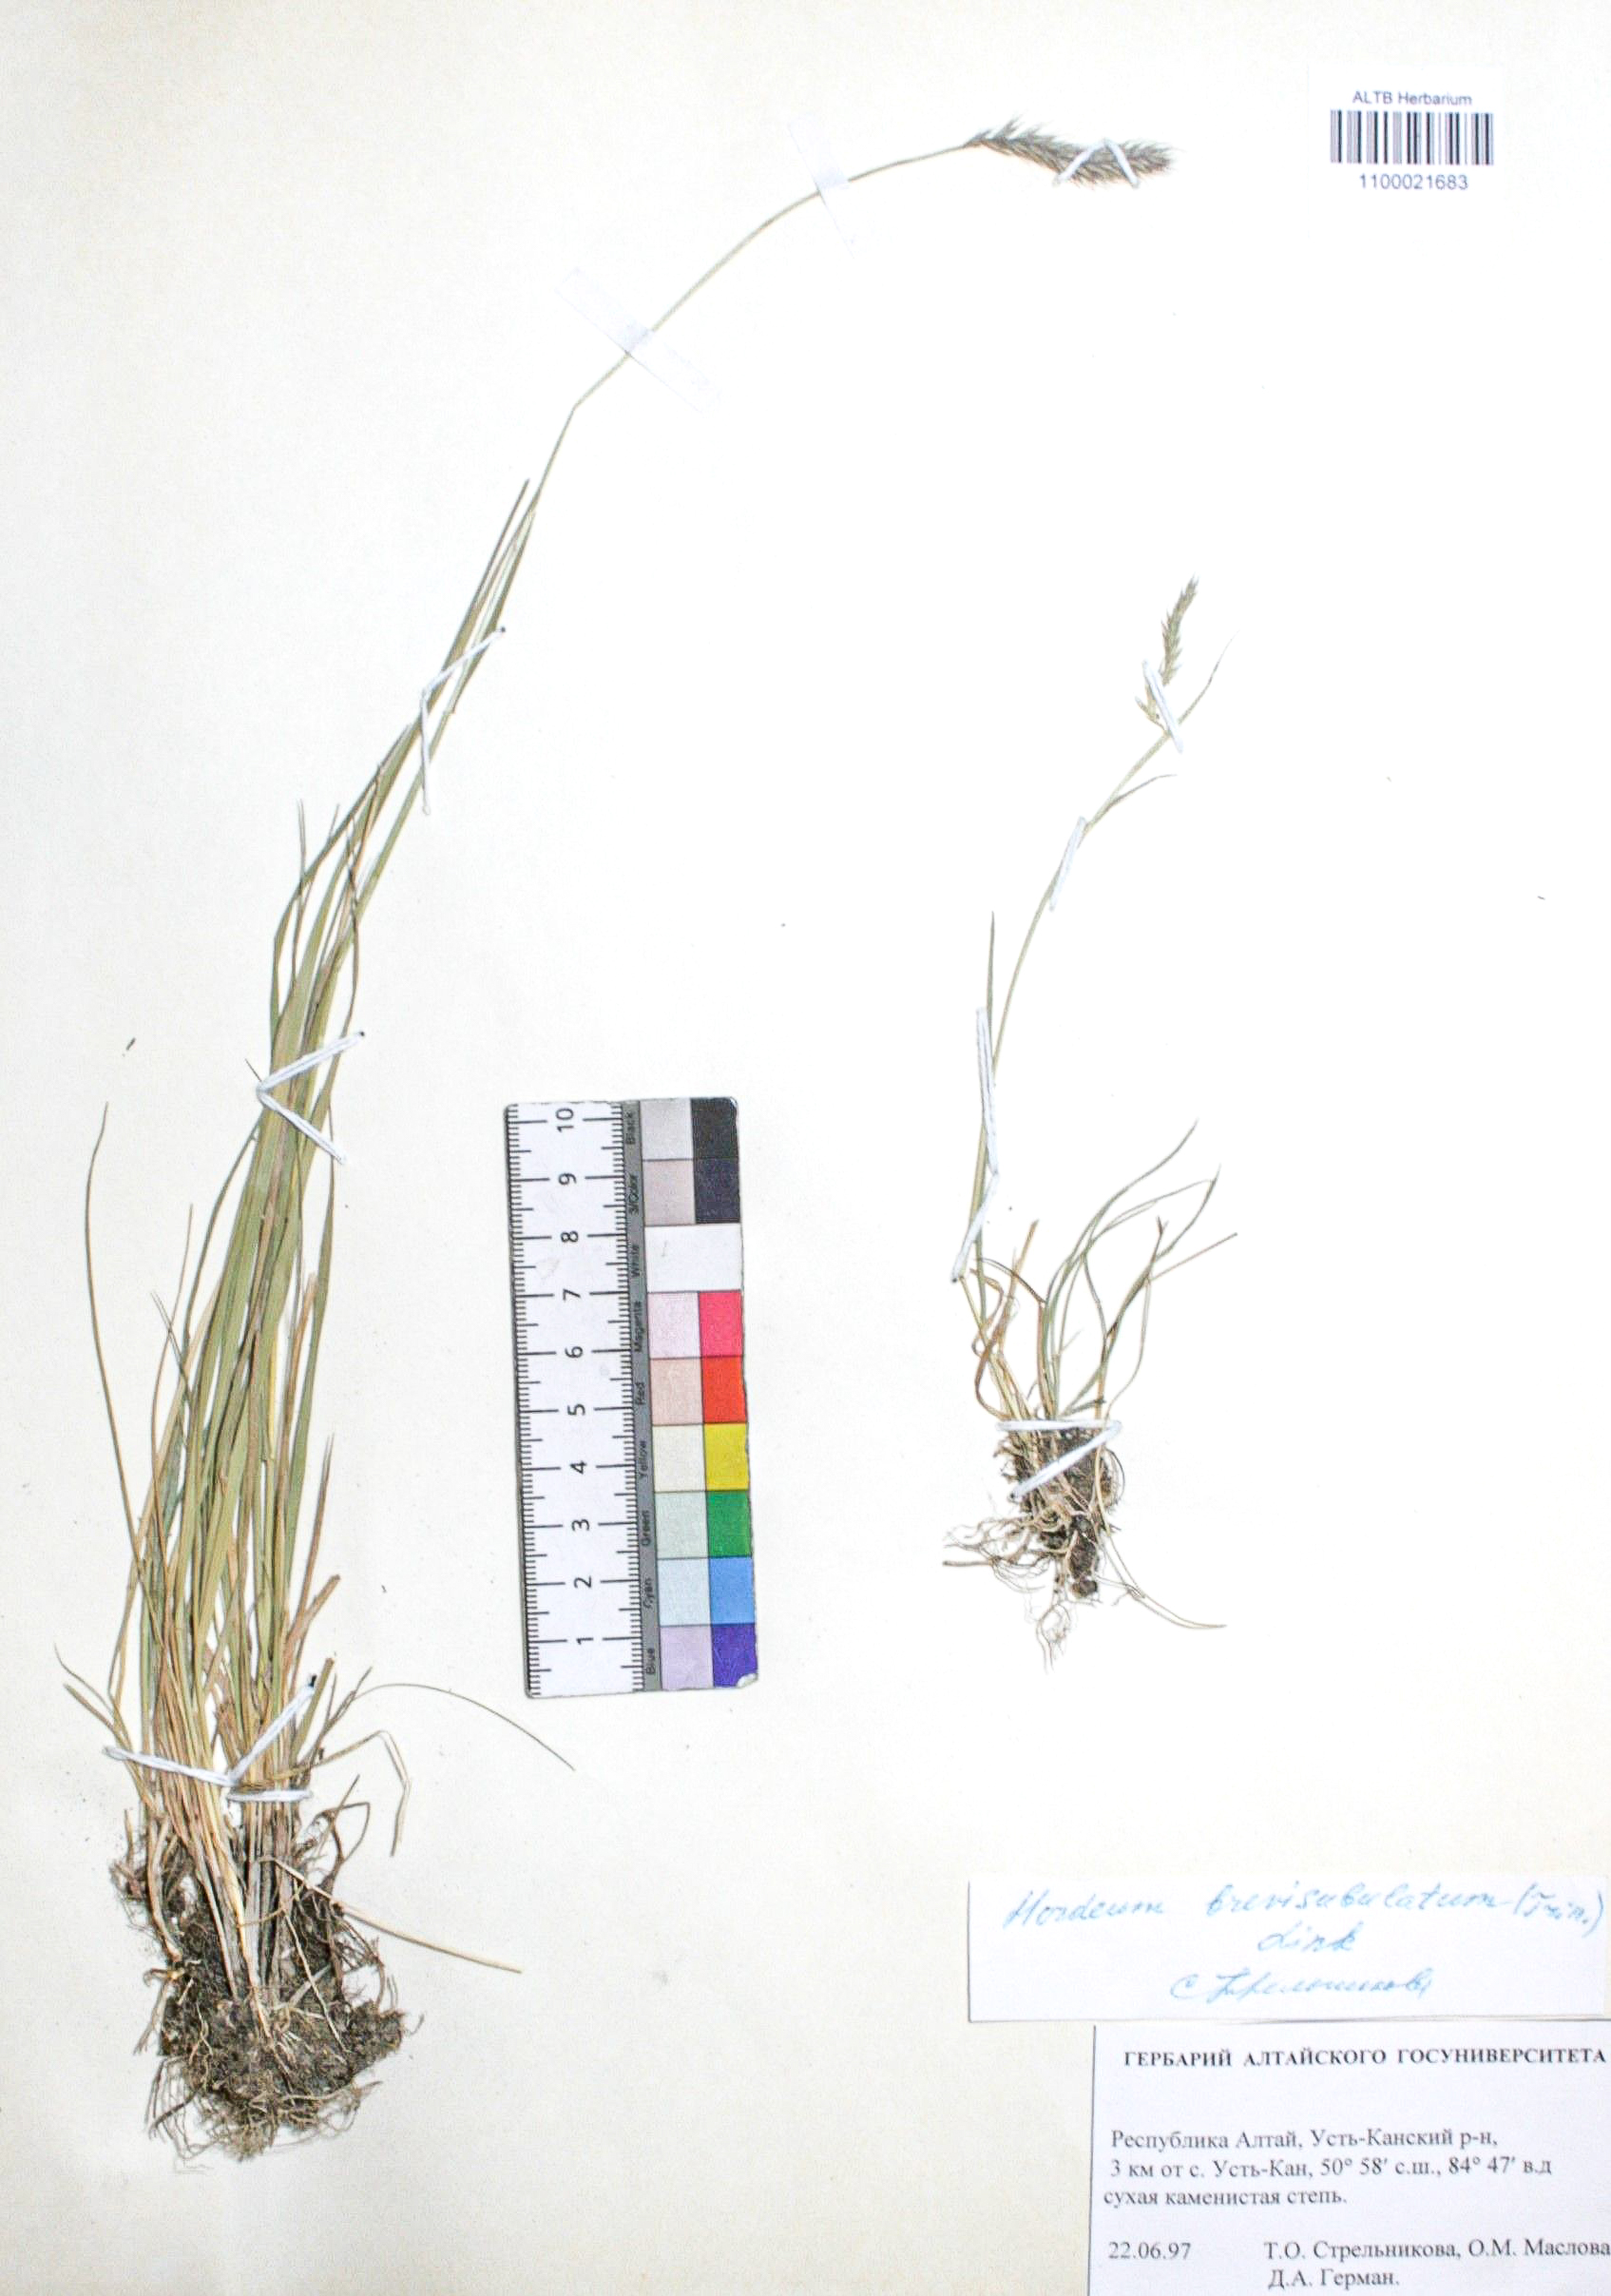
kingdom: Plantae
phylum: Tracheophyta
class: Liliopsida
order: Poales
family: Poaceae
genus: Hordeum
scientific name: Hordeum brevisubulatum
